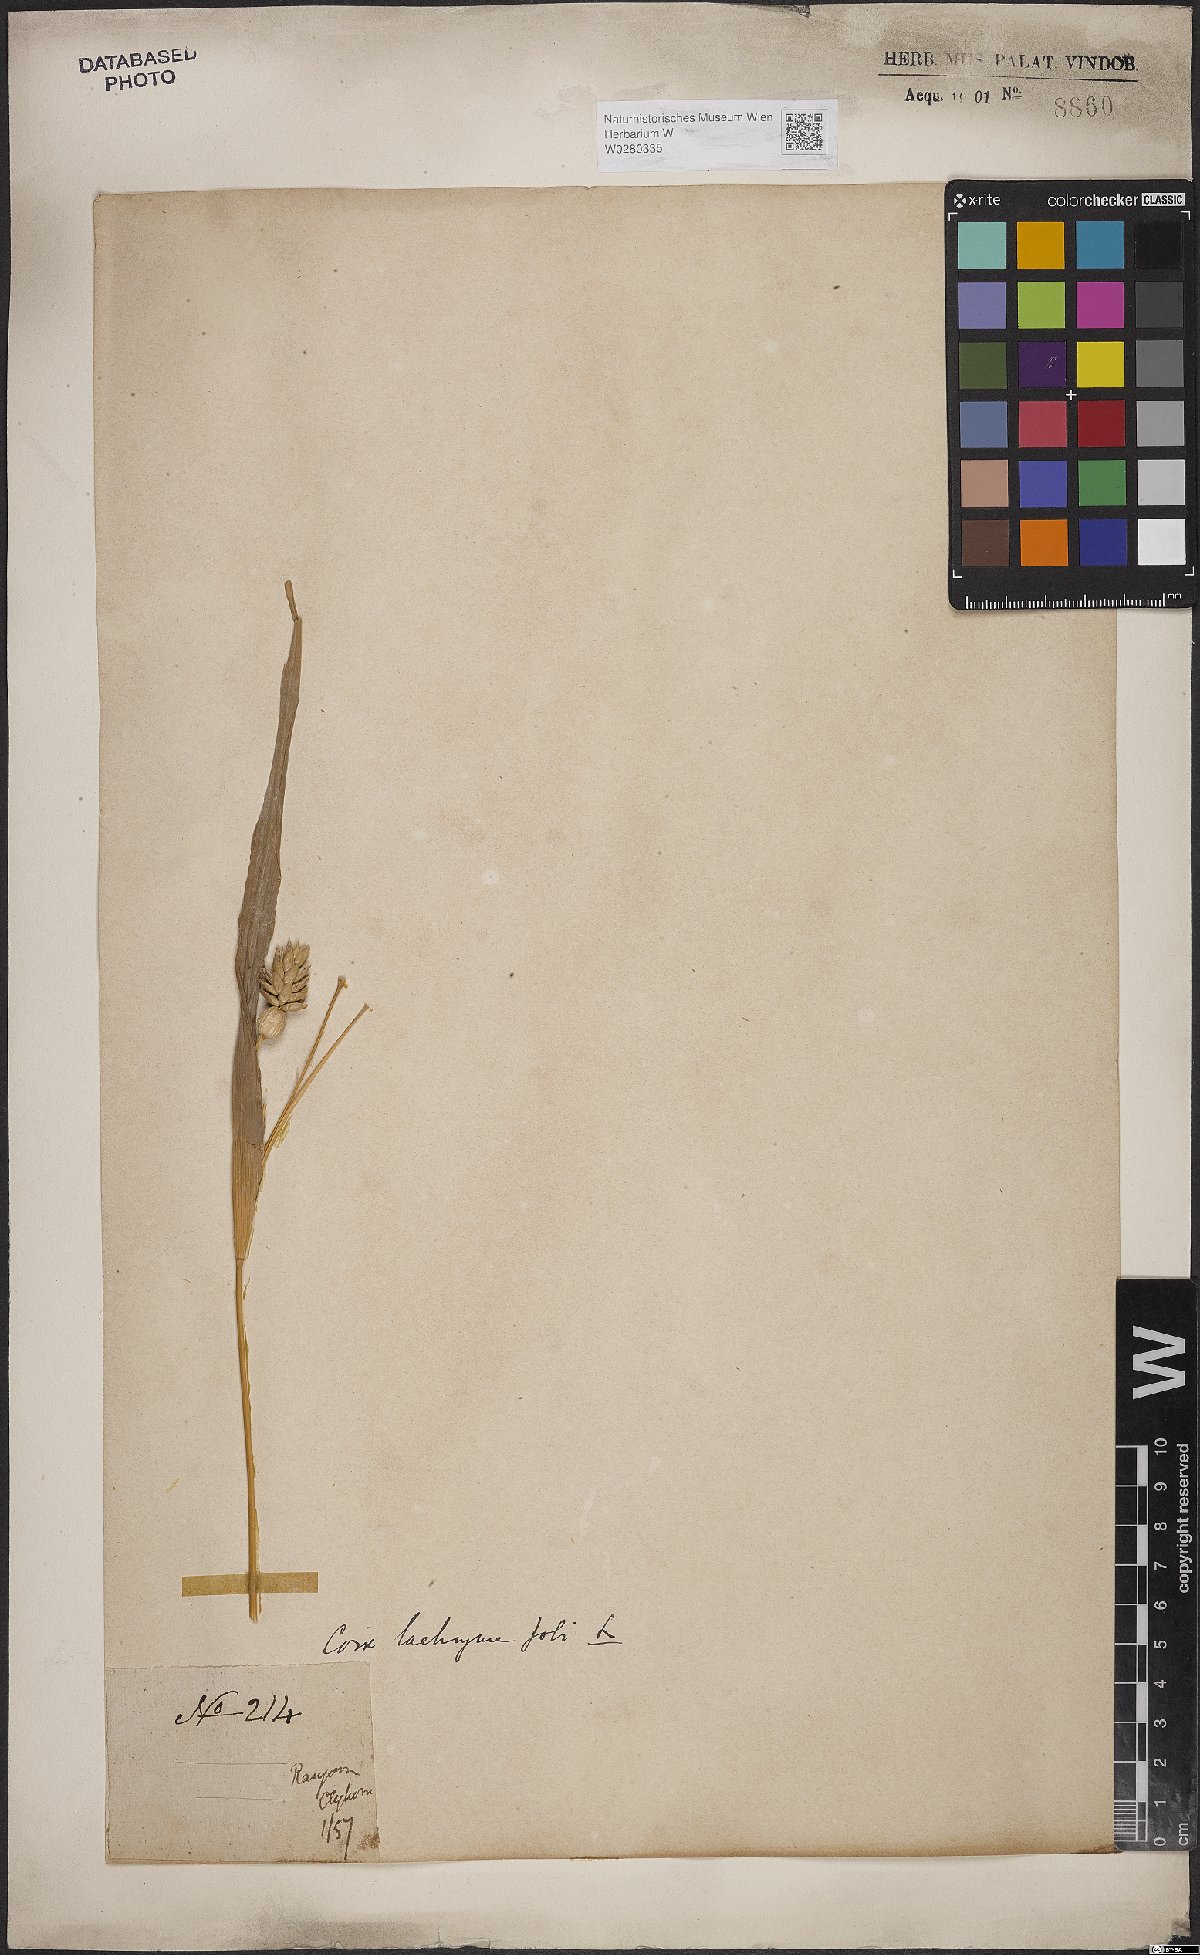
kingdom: Plantae
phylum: Tracheophyta
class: Liliopsida
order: Poales
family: Poaceae
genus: Coix
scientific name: Coix lacryma-jobi
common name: Job's tears
